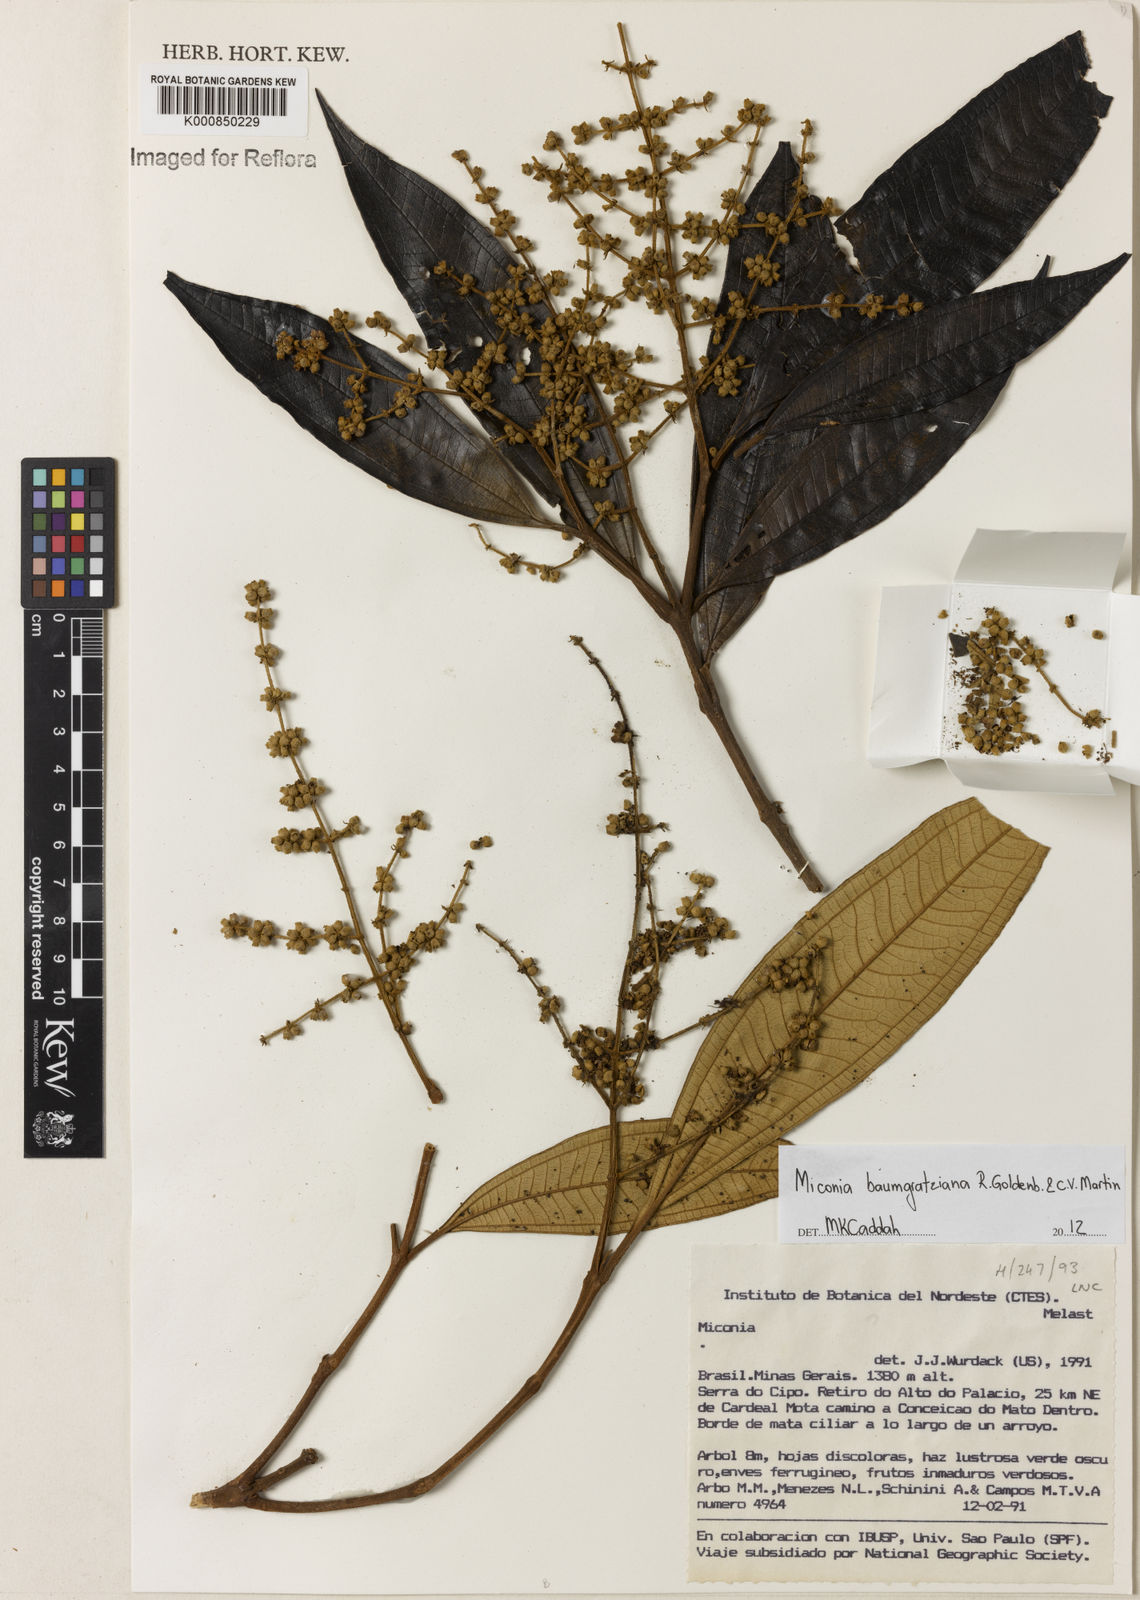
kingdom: Plantae
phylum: Tracheophyta
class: Magnoliopsida
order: Myrtales
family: Melastomataceae
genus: Miconia
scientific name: Miconia baumgratziana
